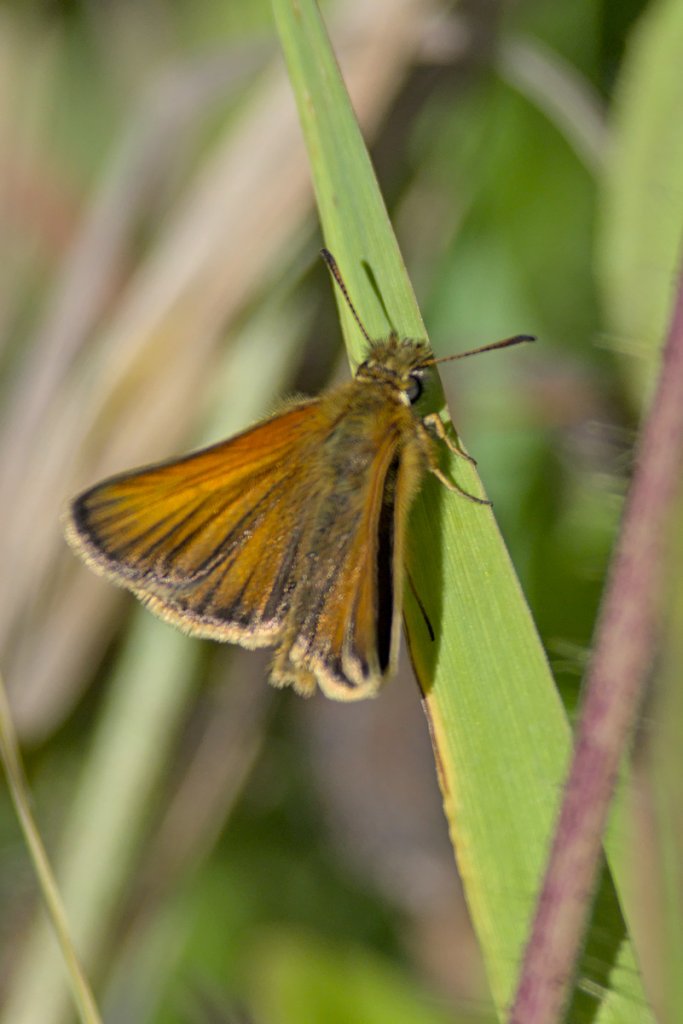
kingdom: Animalia
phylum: Arthropoda
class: Insecta
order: Lepidoptera
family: Hesperiidae
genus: Thymelicus
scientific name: Thymelicus lineola
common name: European Skipper
